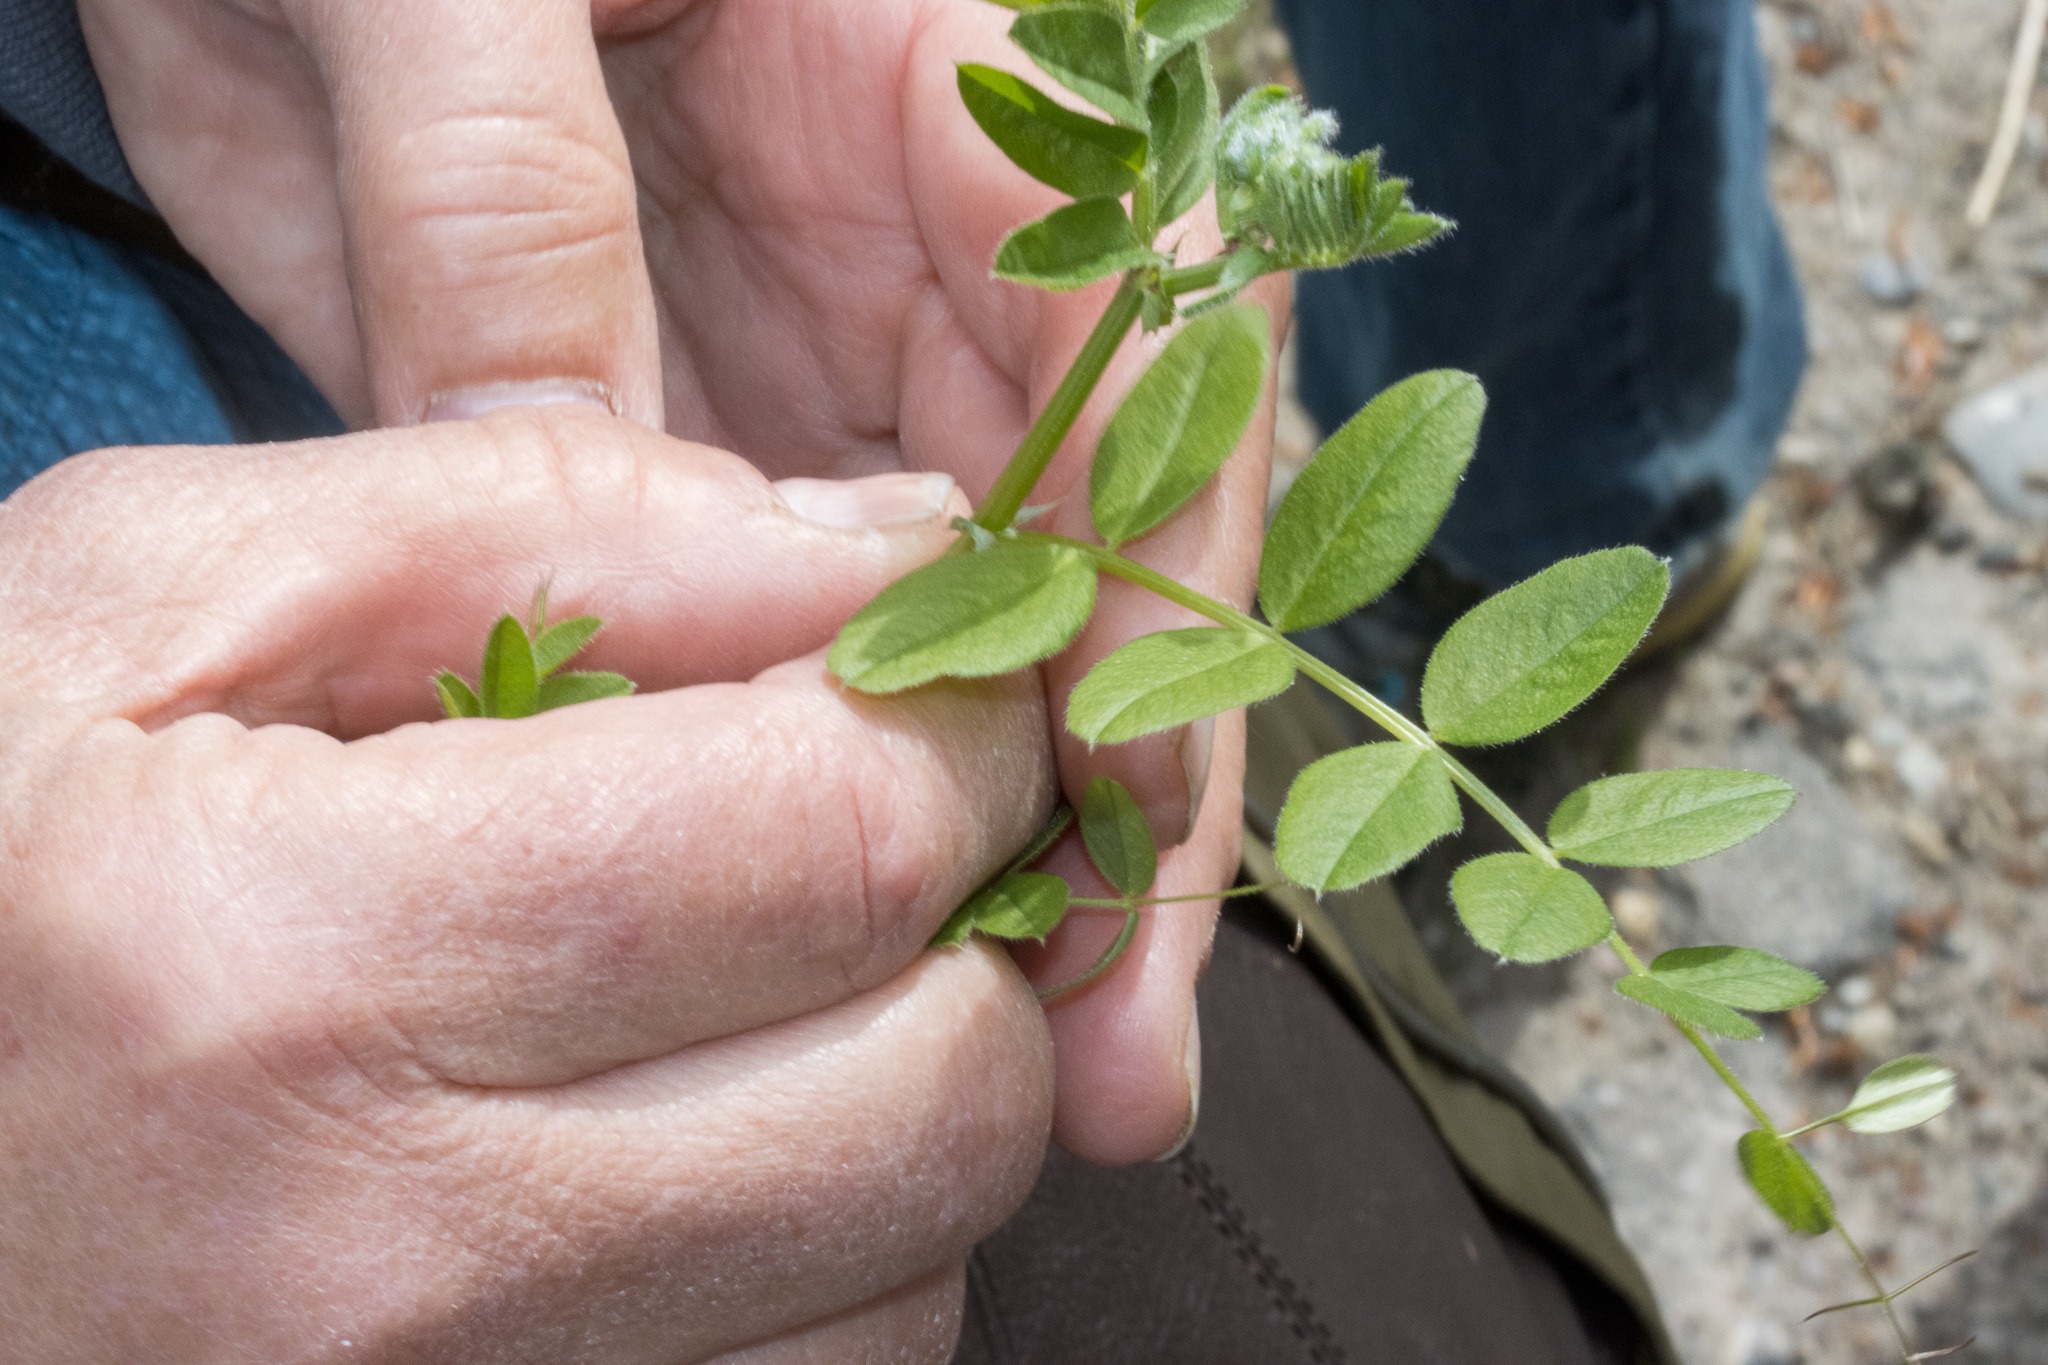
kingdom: Plantae
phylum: Tracheophyta
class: Magnoliopsida
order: Fabales
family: Fabaceae
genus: Vicia
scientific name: Vicia sepium
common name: Gærde-vikke
